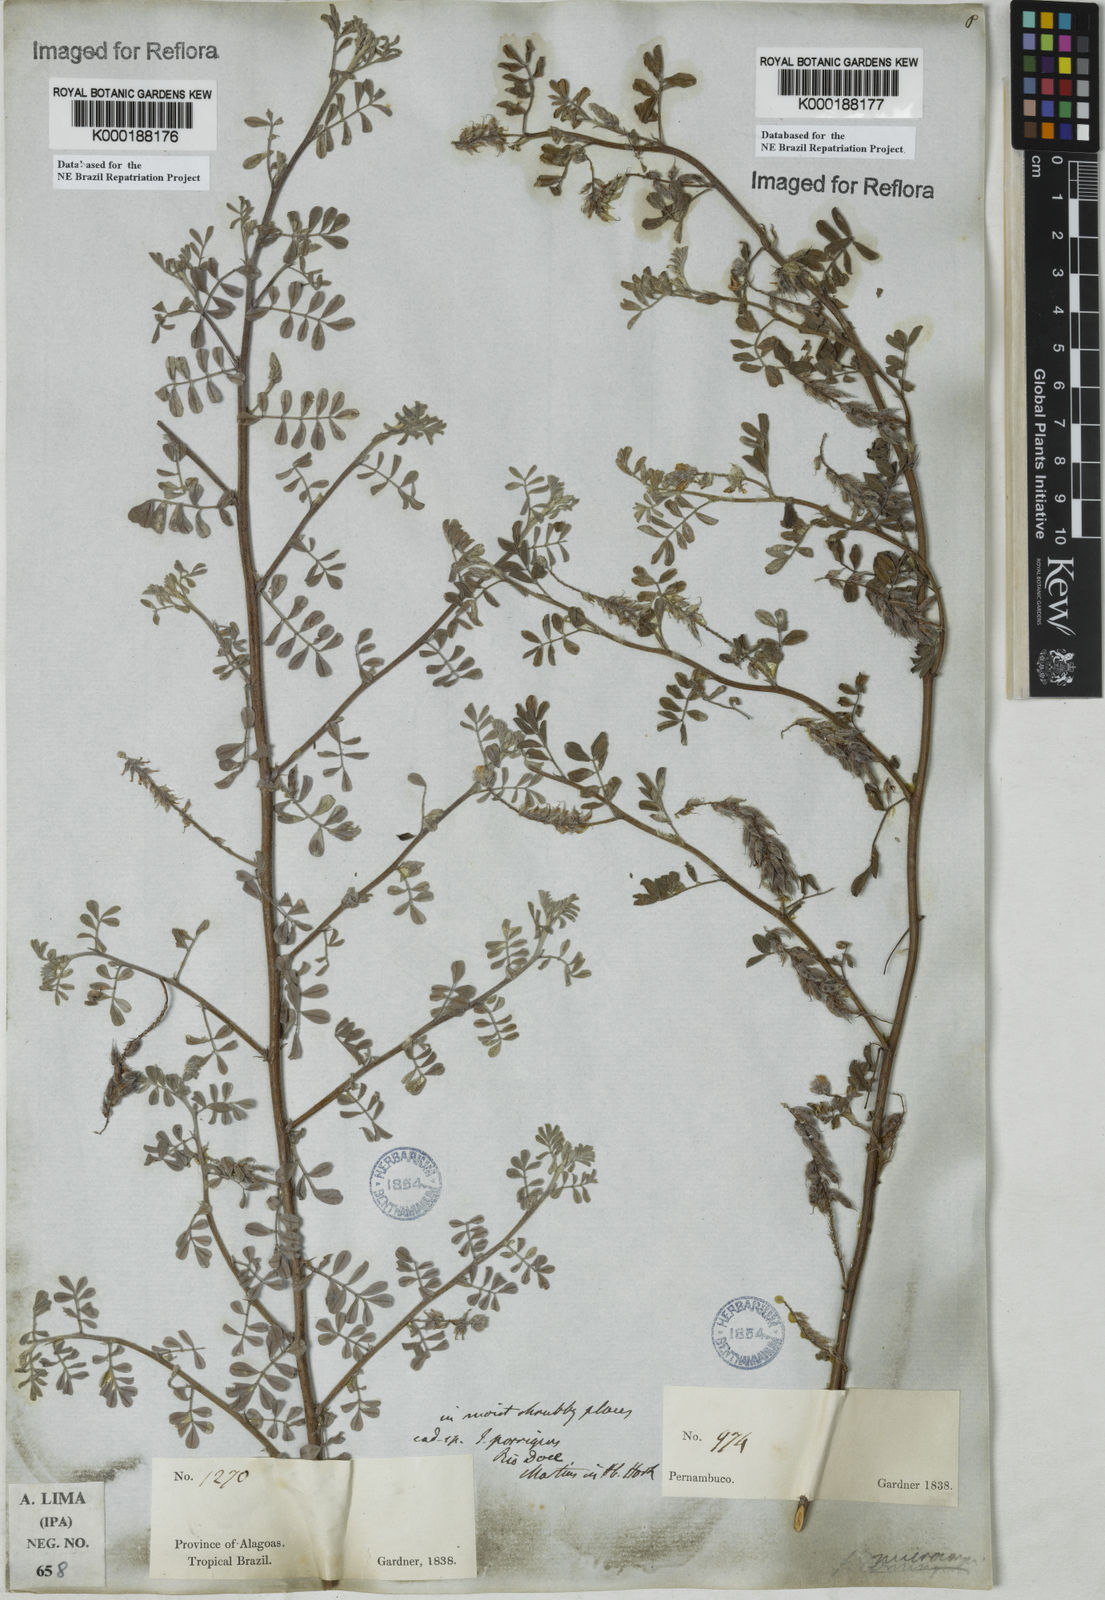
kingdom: Plantae
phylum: Tracheophyta
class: Magnoliopsida
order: Fabales
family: Fabaceae
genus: Indigofera
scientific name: Indigofera microcarpa
